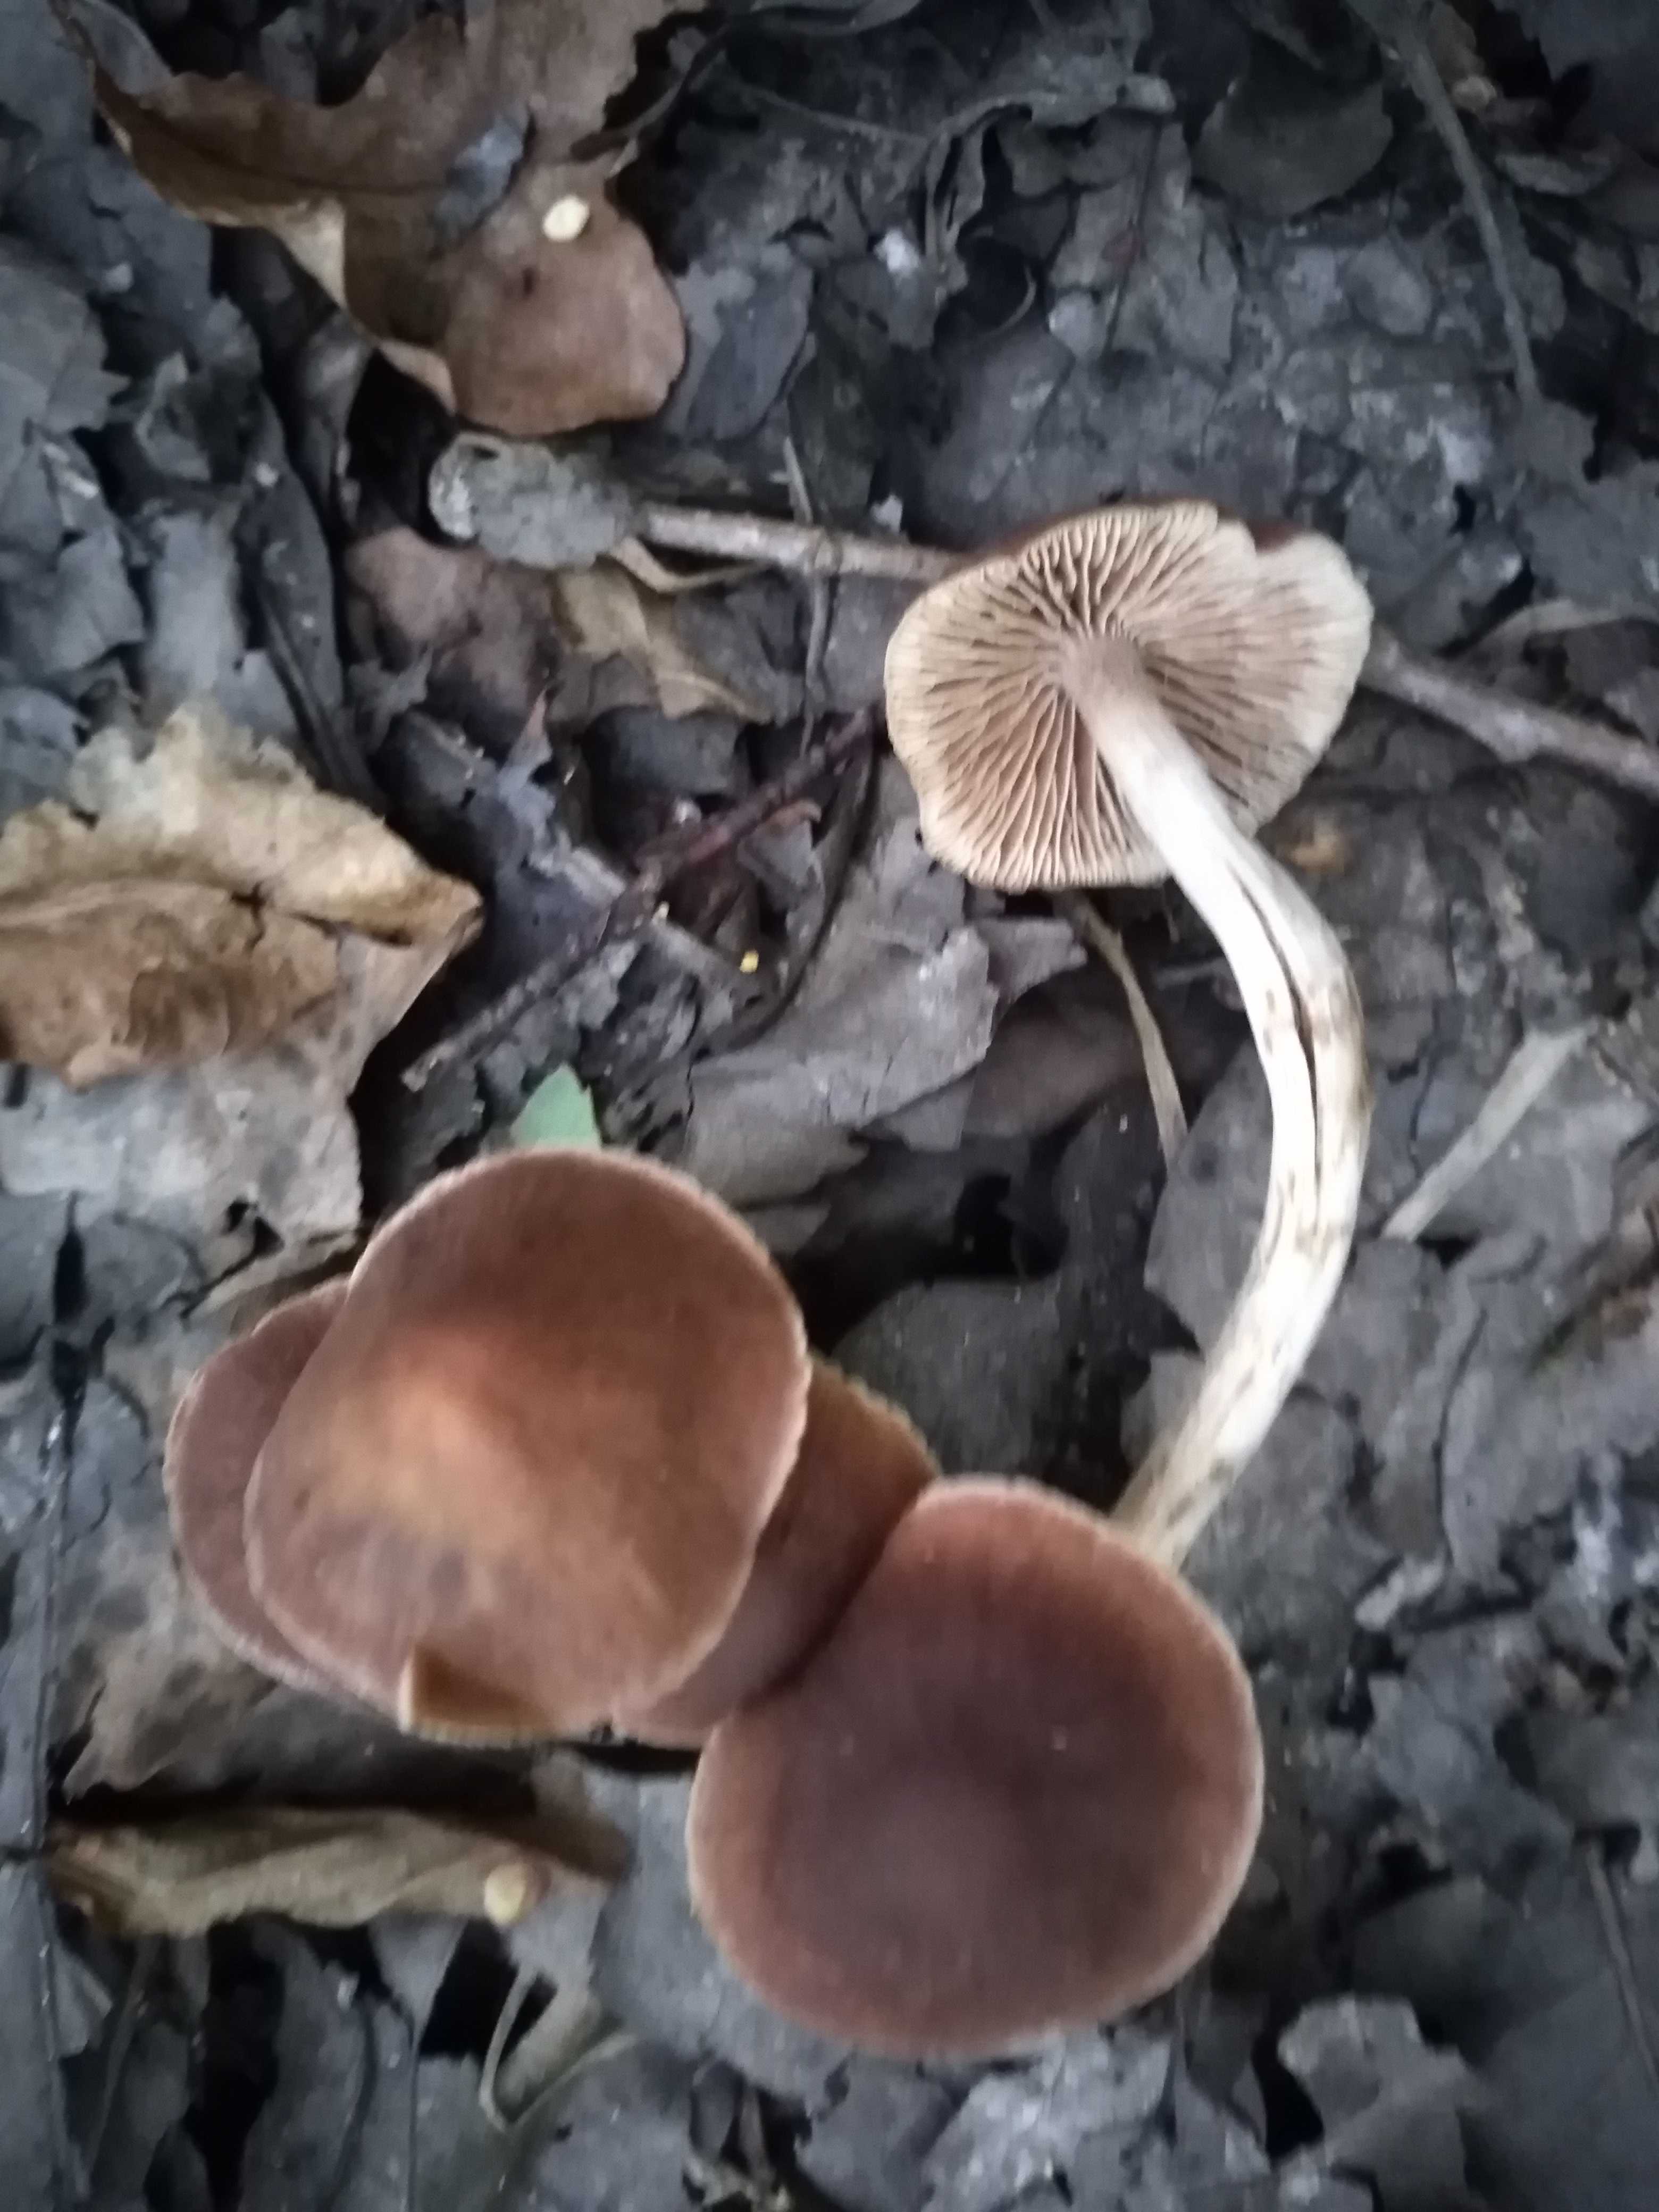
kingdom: Fungi
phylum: Basidiomycota
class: Agaricomycetes
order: Agaricales
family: Psathyrellaceae
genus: Psathyrella
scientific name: Psathyrella bipellis
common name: vinrød mørkhat
